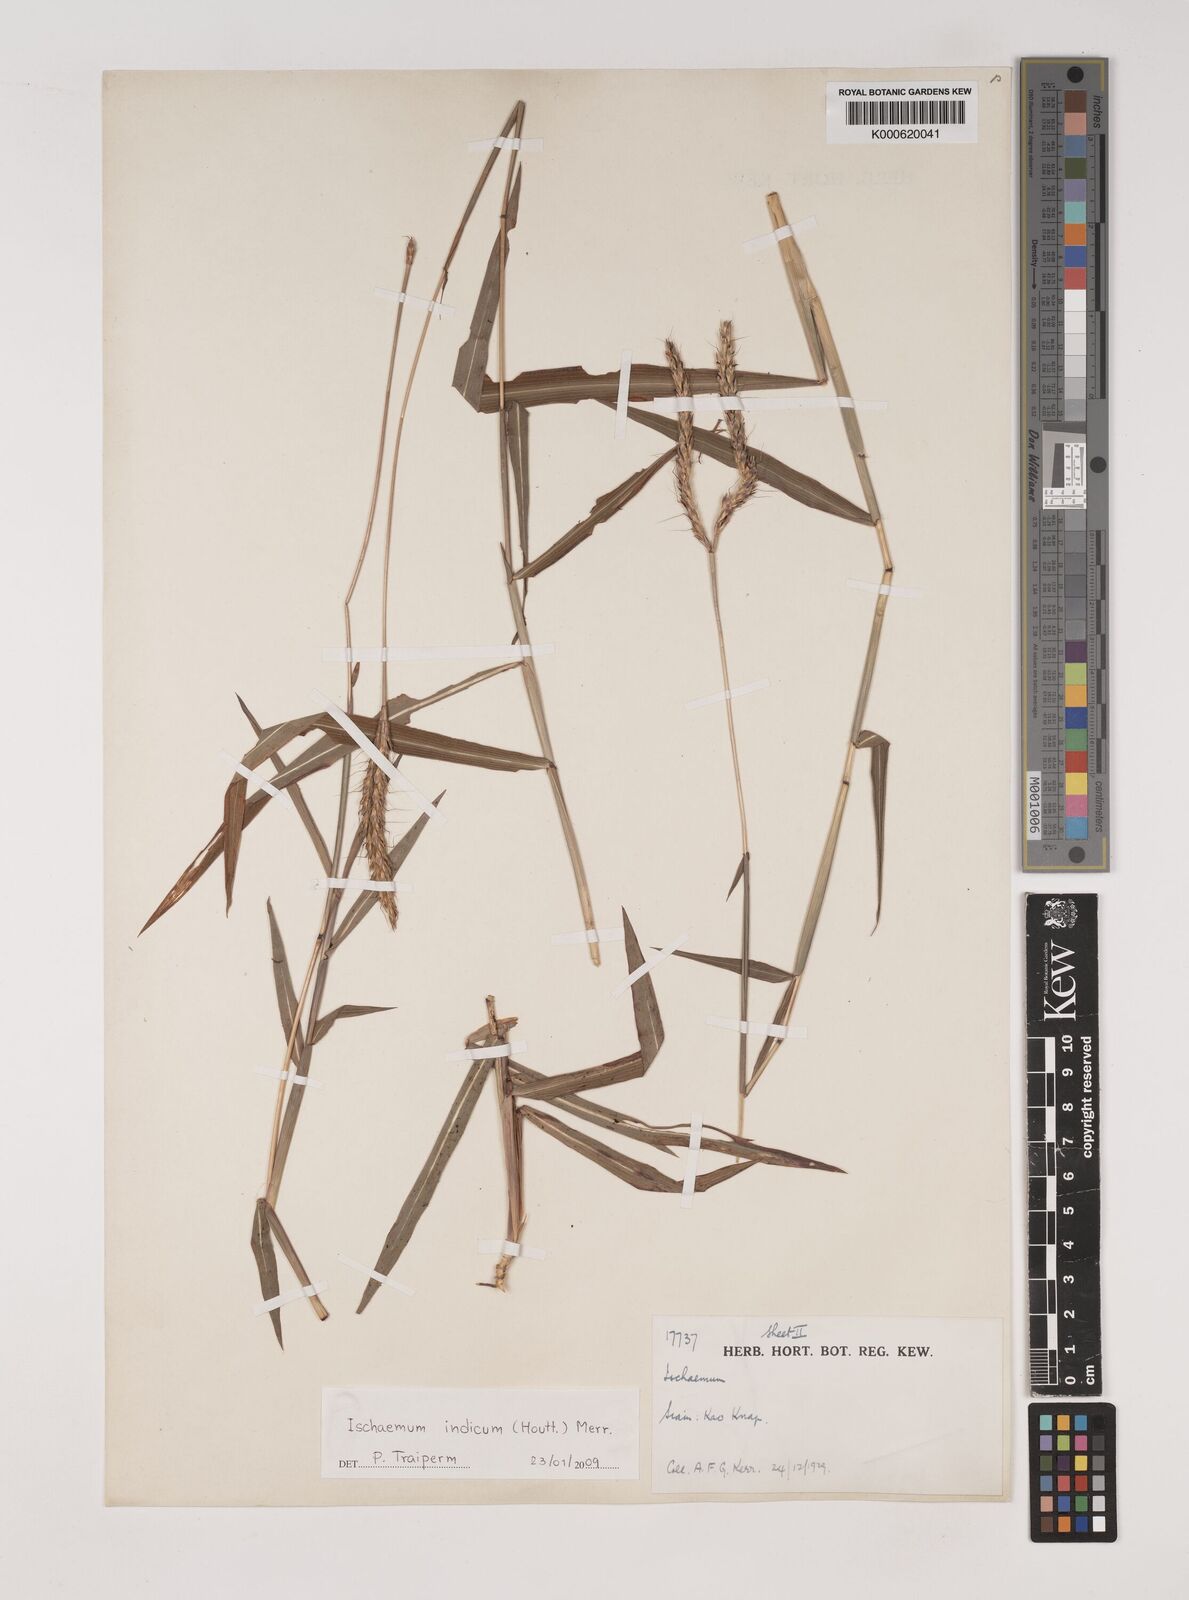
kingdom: Plantae
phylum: Tracheophyta
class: Liliopsida
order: Poales
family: Poaceae
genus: Polytrias
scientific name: Polytrias indica
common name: Indian murainagrass
